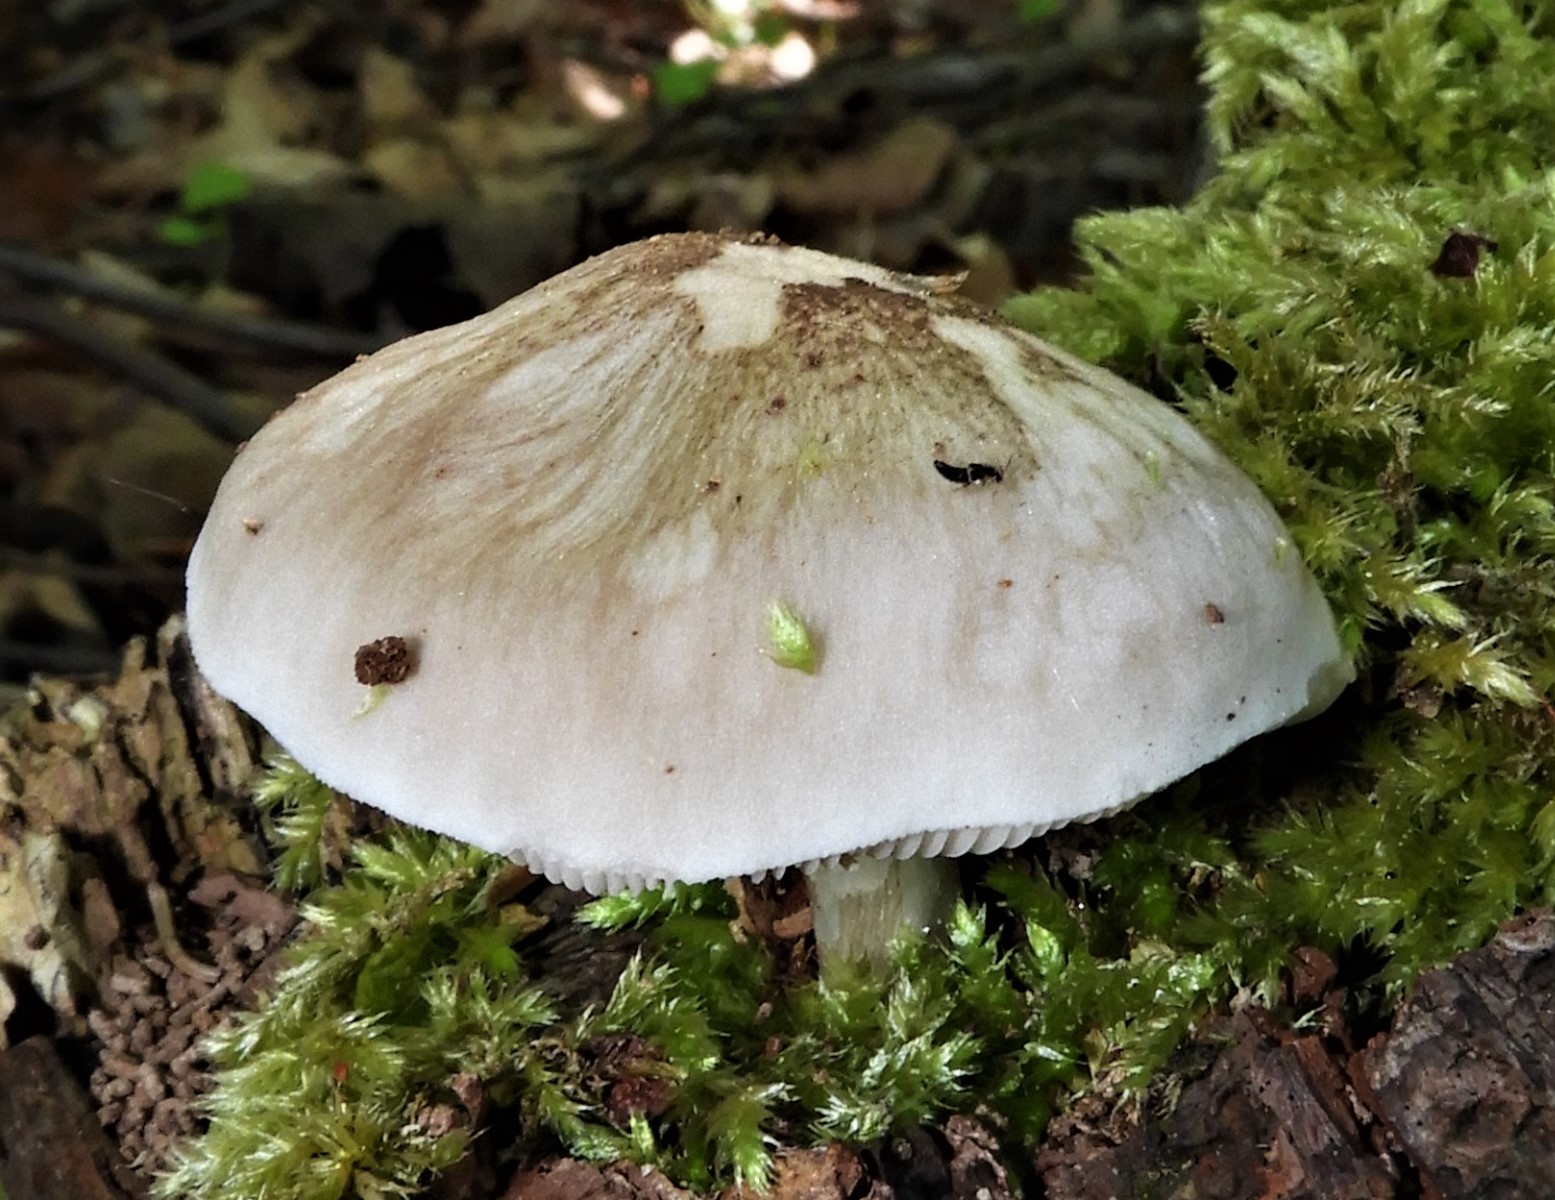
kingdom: Fungi
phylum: Basidiomycota
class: Agaricomycetes
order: Agaricales
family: Pluteaceae
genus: Pluteus
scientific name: Pluteus cervinus
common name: sodfarvet skærmhat
